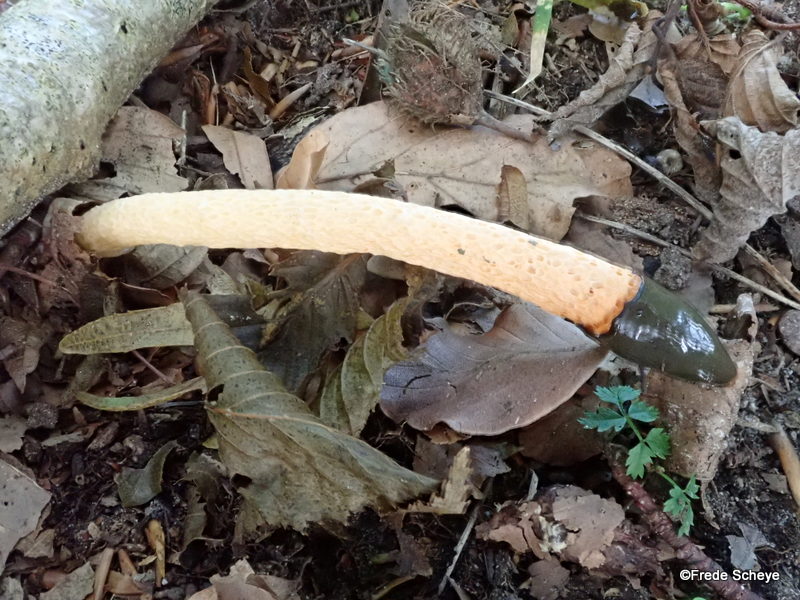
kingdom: Fungi
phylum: Basidiomycota
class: Agaricomycetes
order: Phallales
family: Phallaceae
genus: Mutinus
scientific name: Mutinus caninus
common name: hunde-stinksvamp
